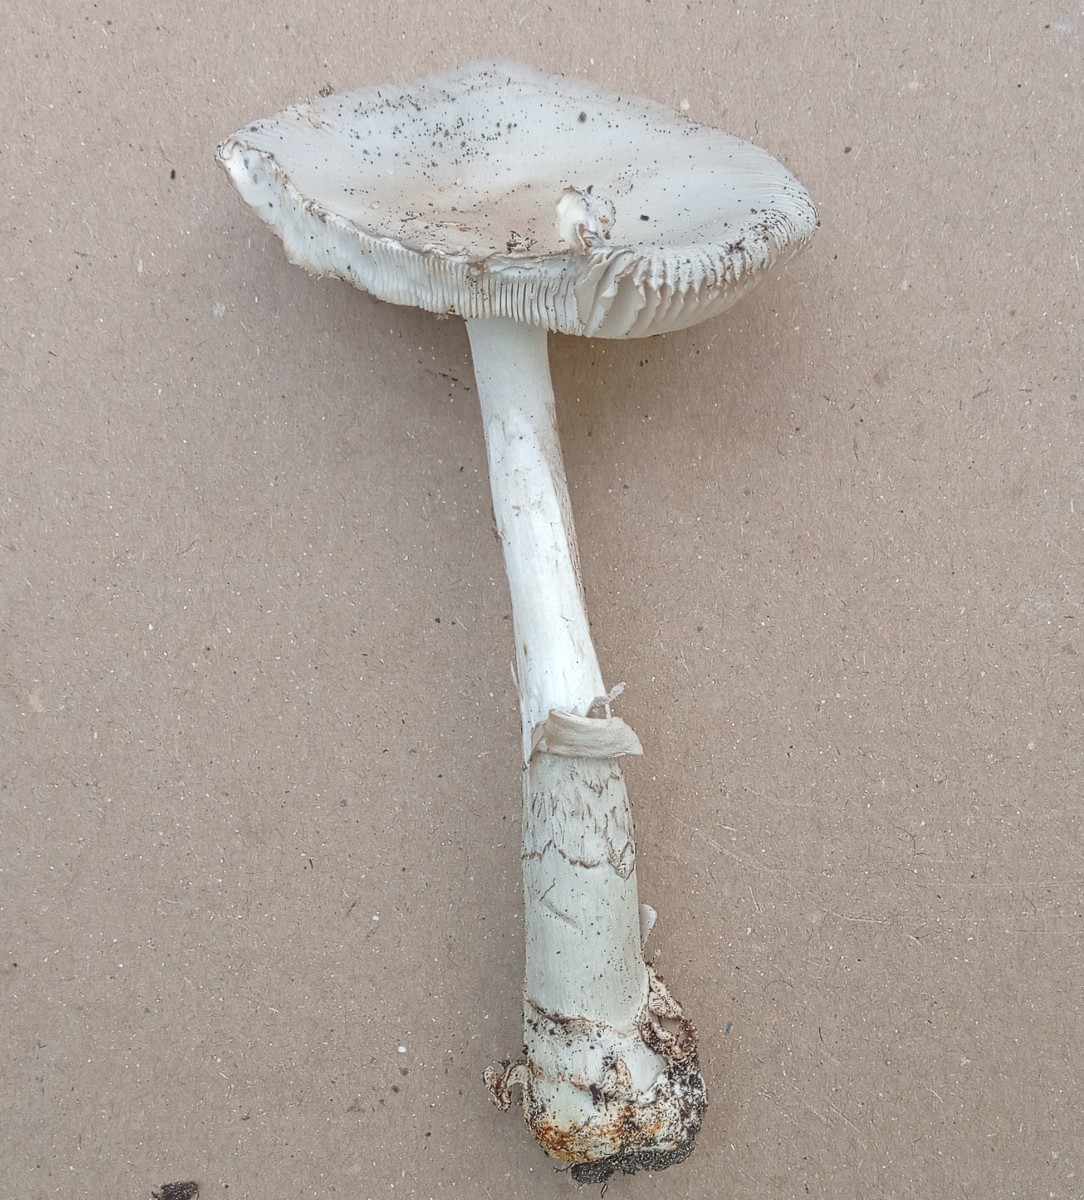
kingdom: Fungi
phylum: Basidiomycota
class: Agaricomycetes
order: Agaricales
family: Amanitaceae
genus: Amanita
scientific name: Amanita
